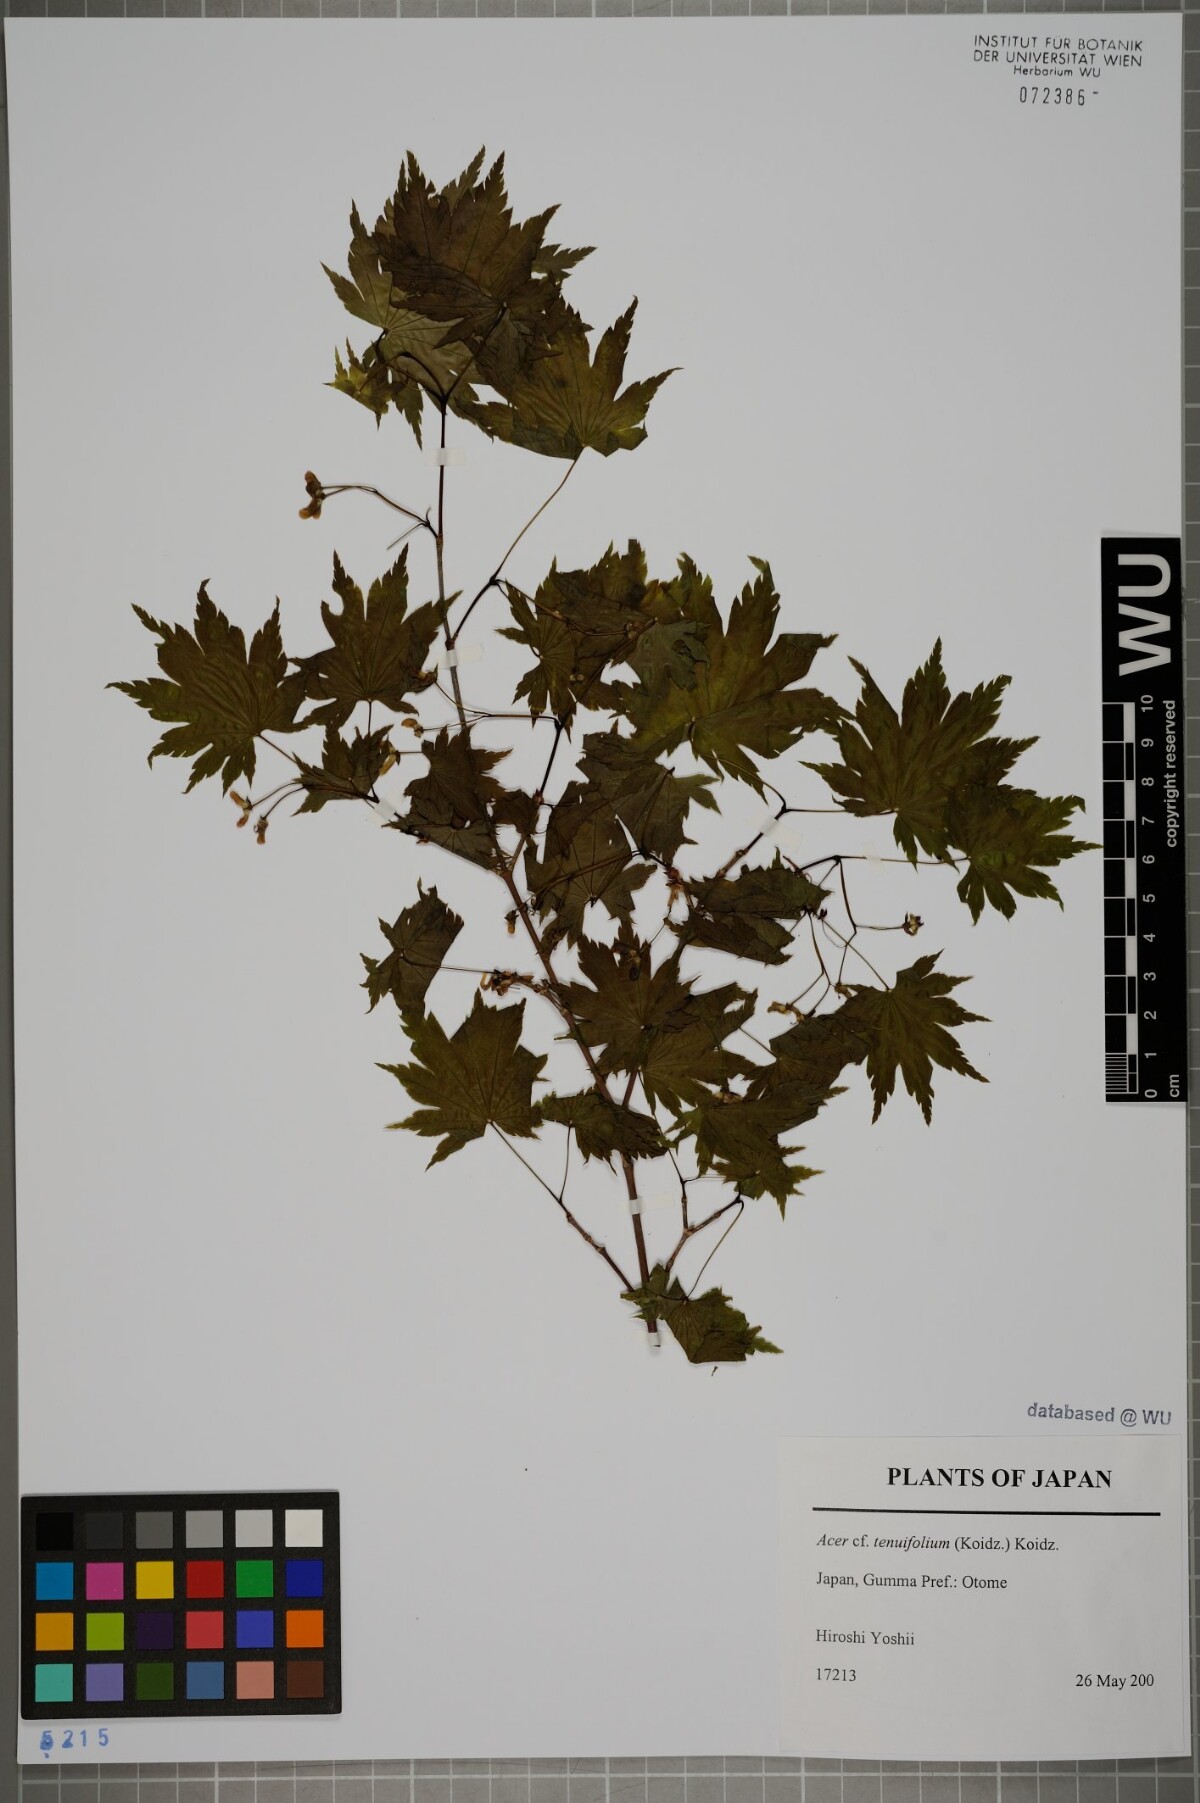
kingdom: Plantae
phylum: Tracheophyta
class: Magnoliopsida
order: Sapindales
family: Sapindaceae
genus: Acer
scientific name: Acer shirasawanum
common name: Full moon maple
